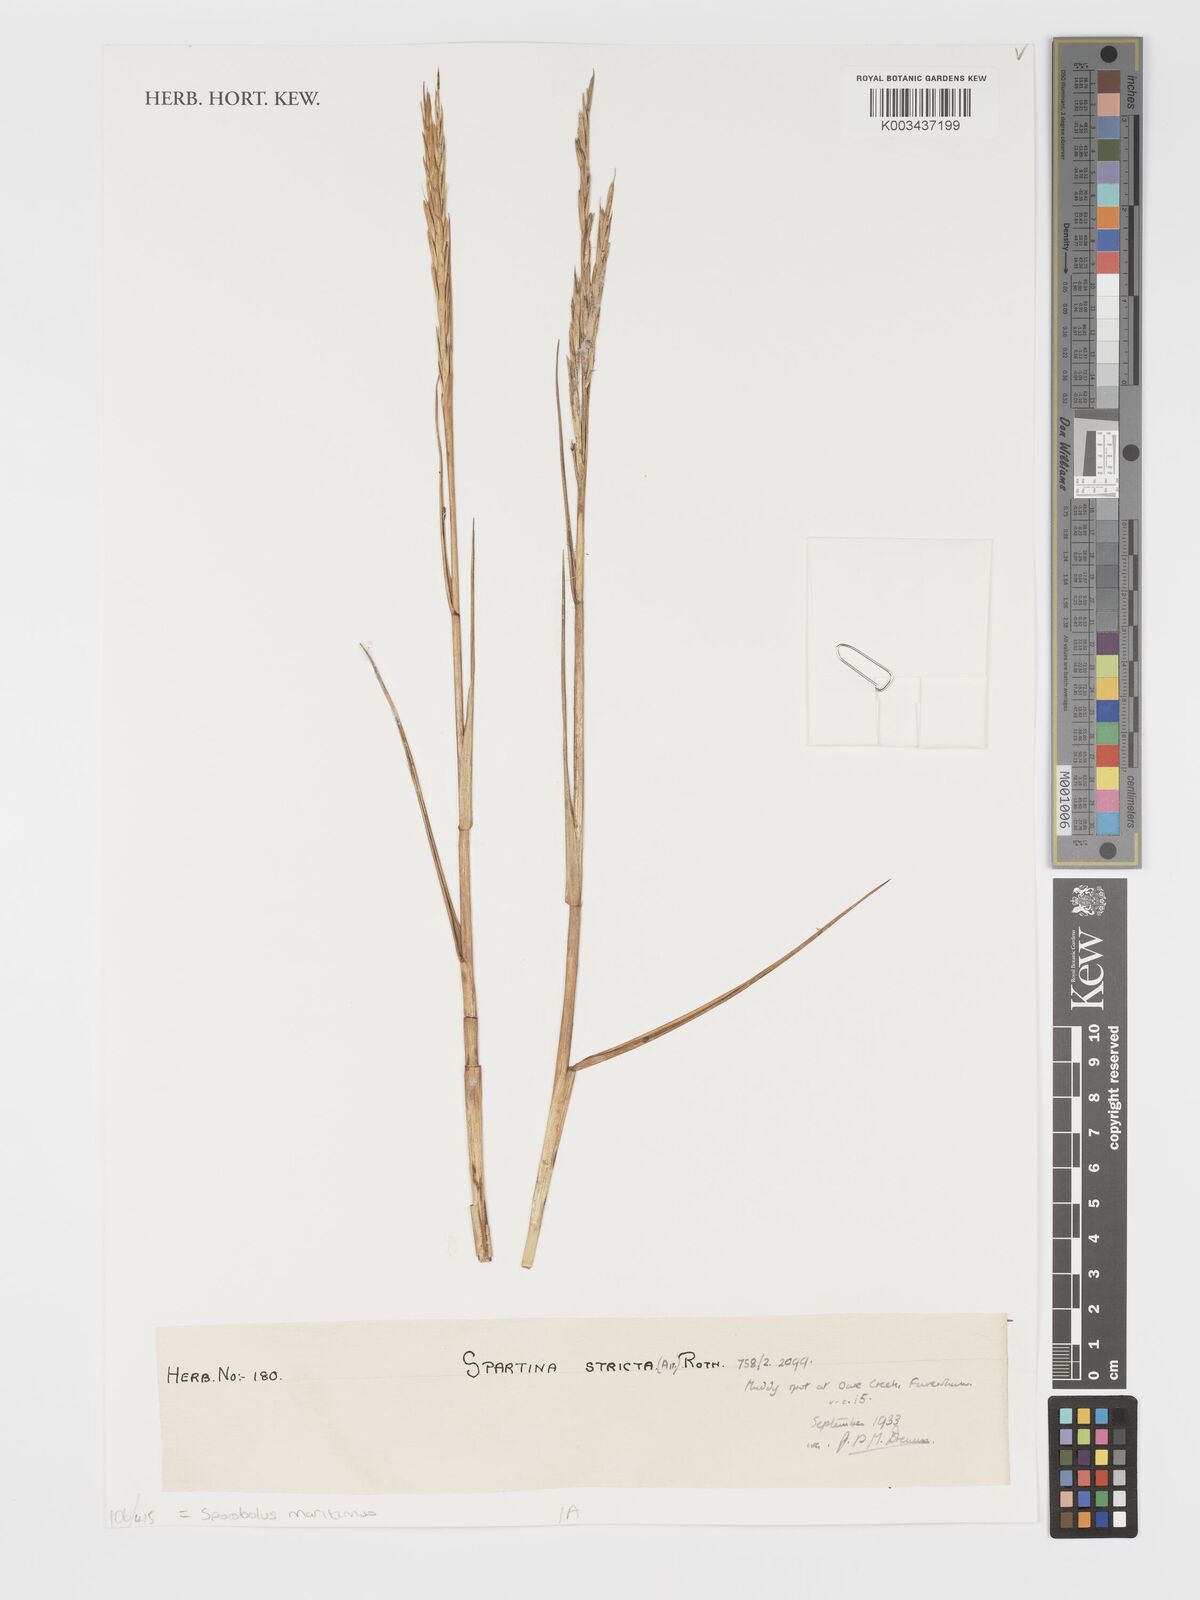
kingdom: Plantae
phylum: Tracheophyta
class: Liliopsida
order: Poales
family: Poaceae
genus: Sporobolus
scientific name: Sporobolus maritimus
